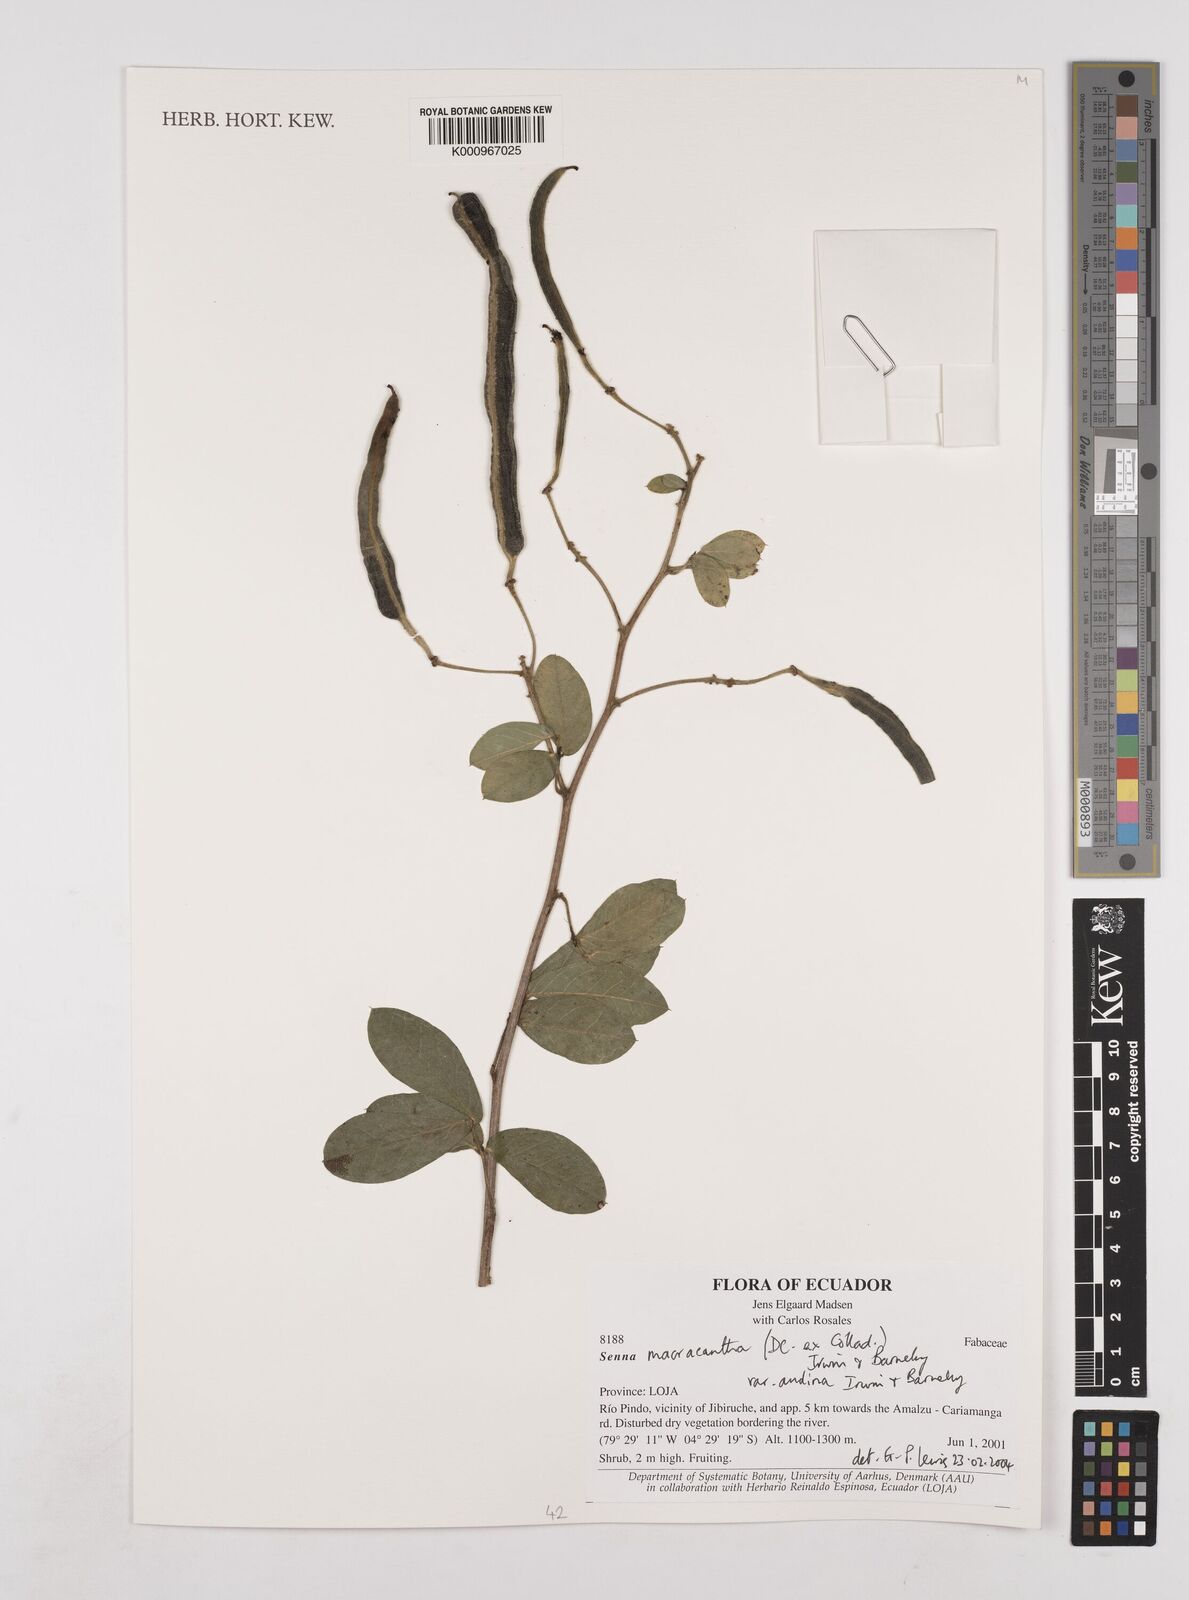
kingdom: Plantae
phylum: Tracheophyta
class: Magnoliopsida
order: Fabales
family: Fabaceae
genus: Senna
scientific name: Senna
